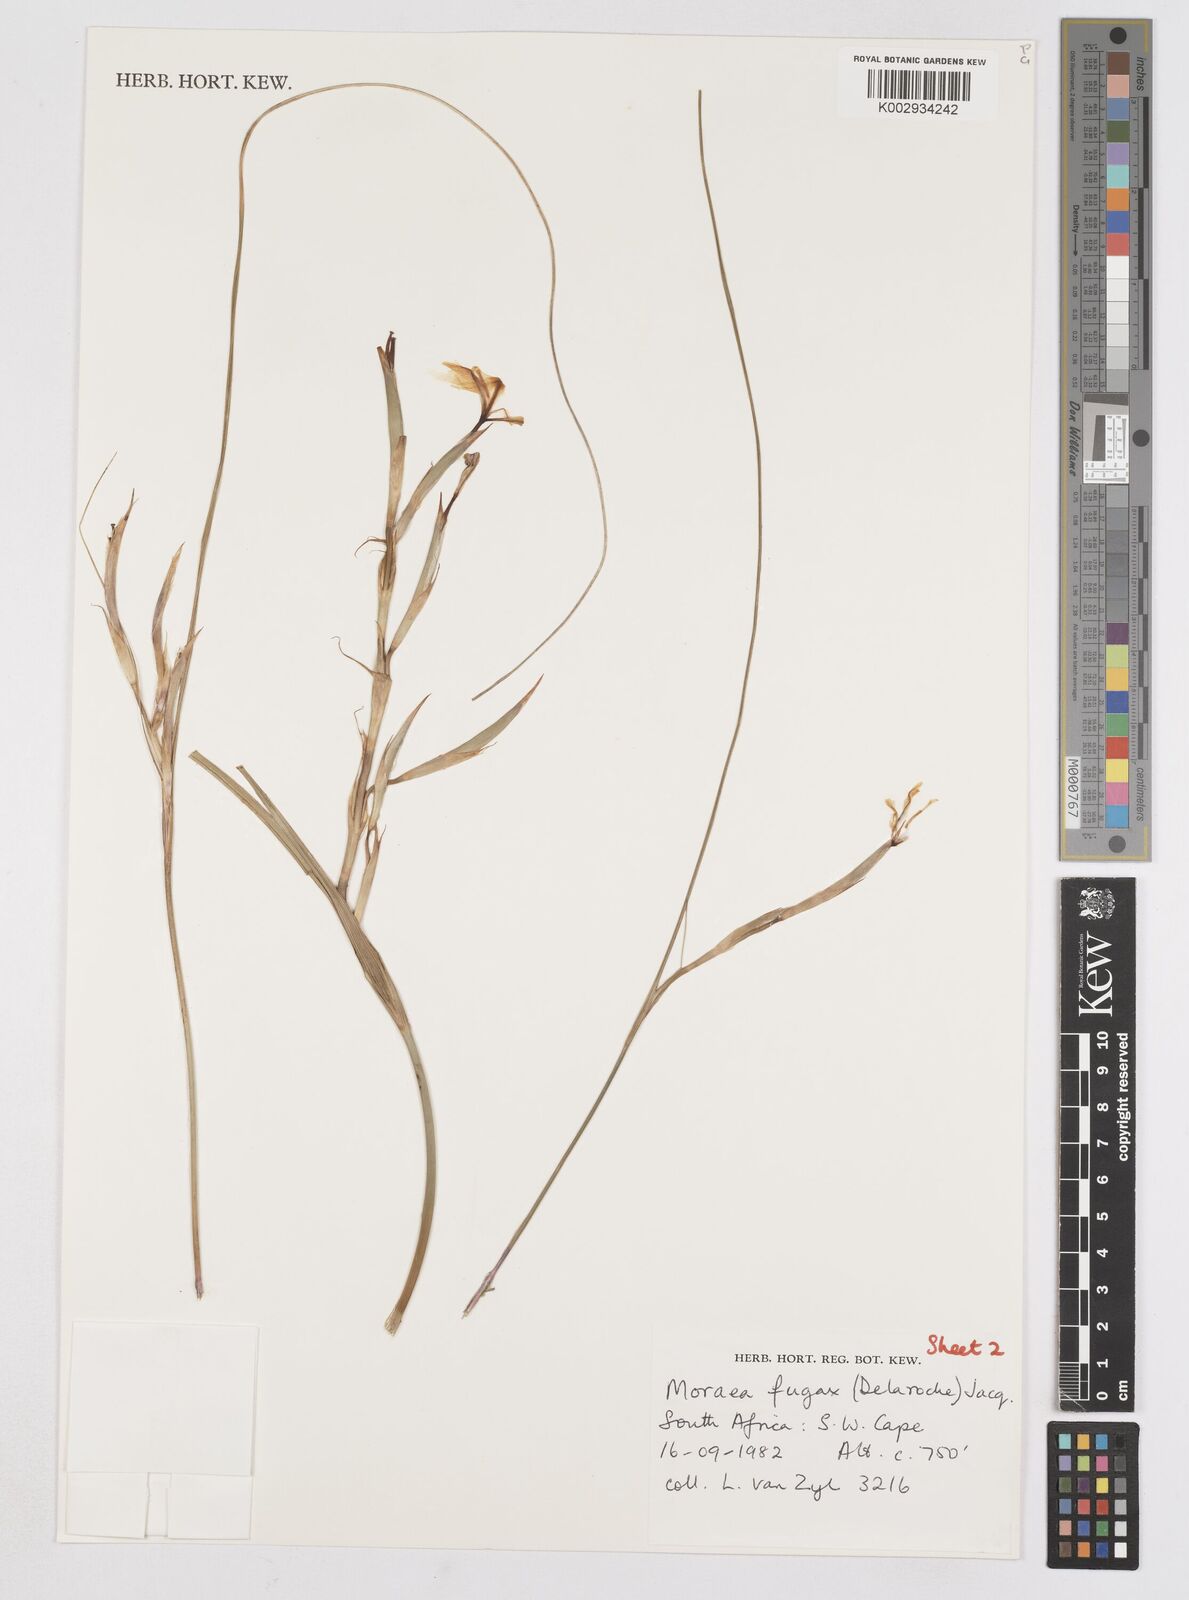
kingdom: Plantae
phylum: Tracheophyta
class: Liliopsida
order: Asparagales
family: Iridaceae
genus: Moraea
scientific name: Moraea fugax
